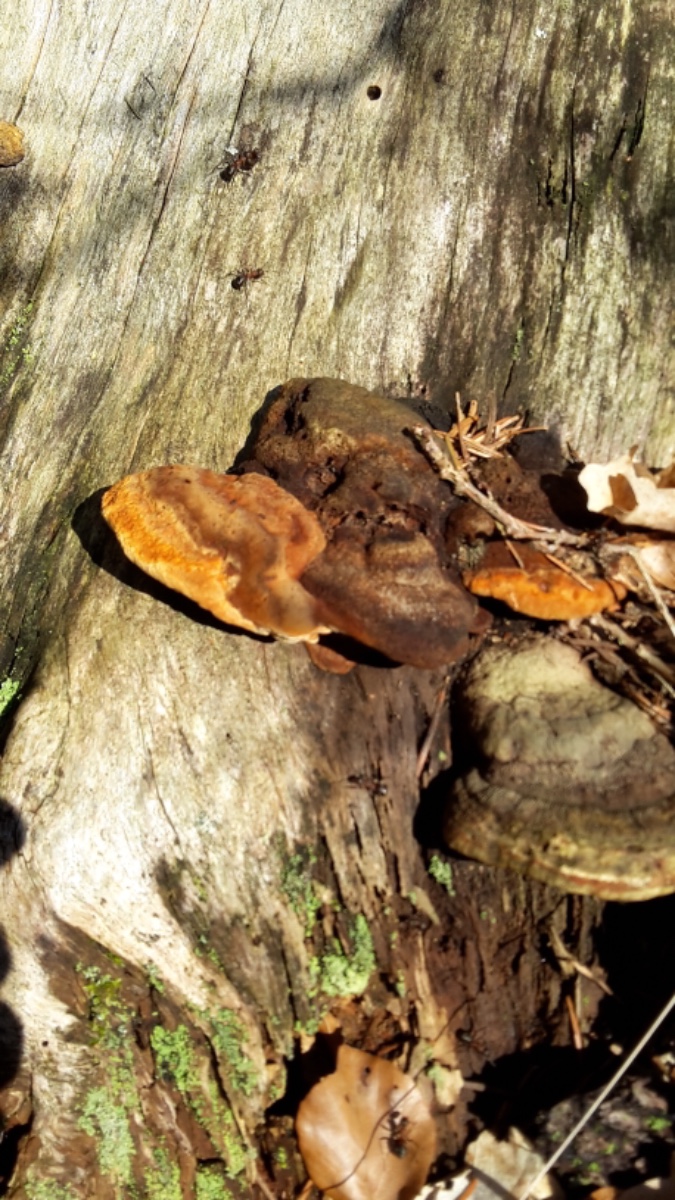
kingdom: Fungi
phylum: Basidiomycota
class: Agaricomycetes
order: Gloeophyllales
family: Gloeophyllaceae
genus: Gloeophyllum
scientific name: Gloeophyllum odoratum
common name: duftende korkhat
